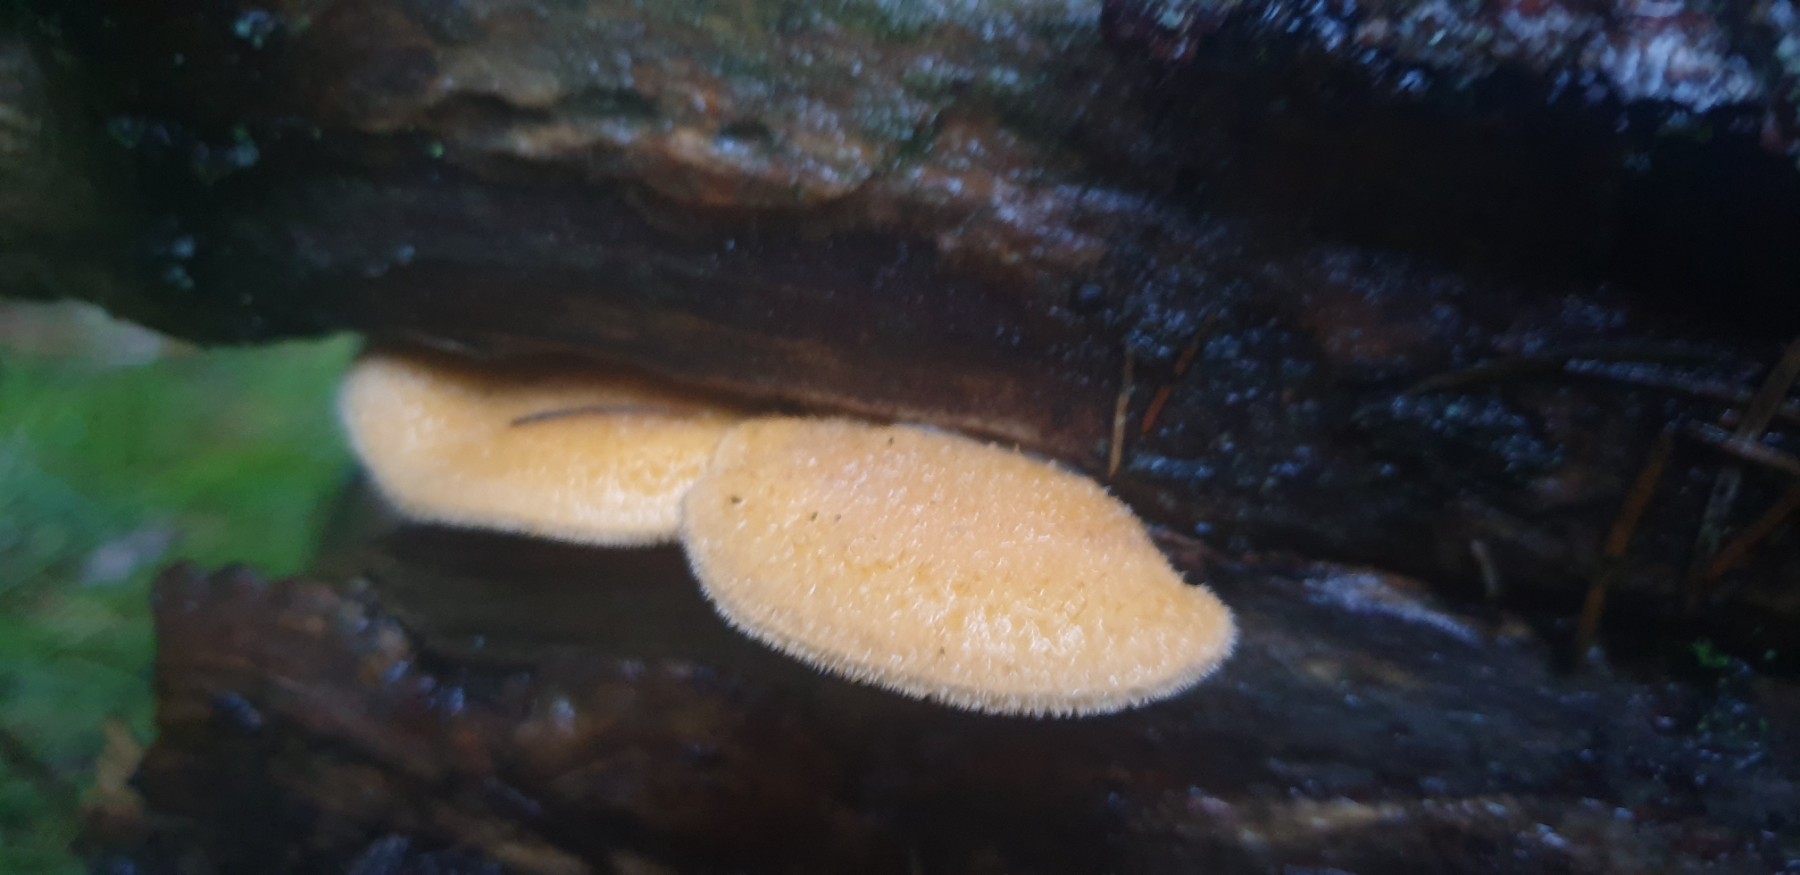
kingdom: Fungi
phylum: Basidiomycota
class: Agaricomycetes
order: Agaricales
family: Phyllotopsidaceae
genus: Phyllotopsis
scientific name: Phyllotopsis nidulans
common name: okkerblad
